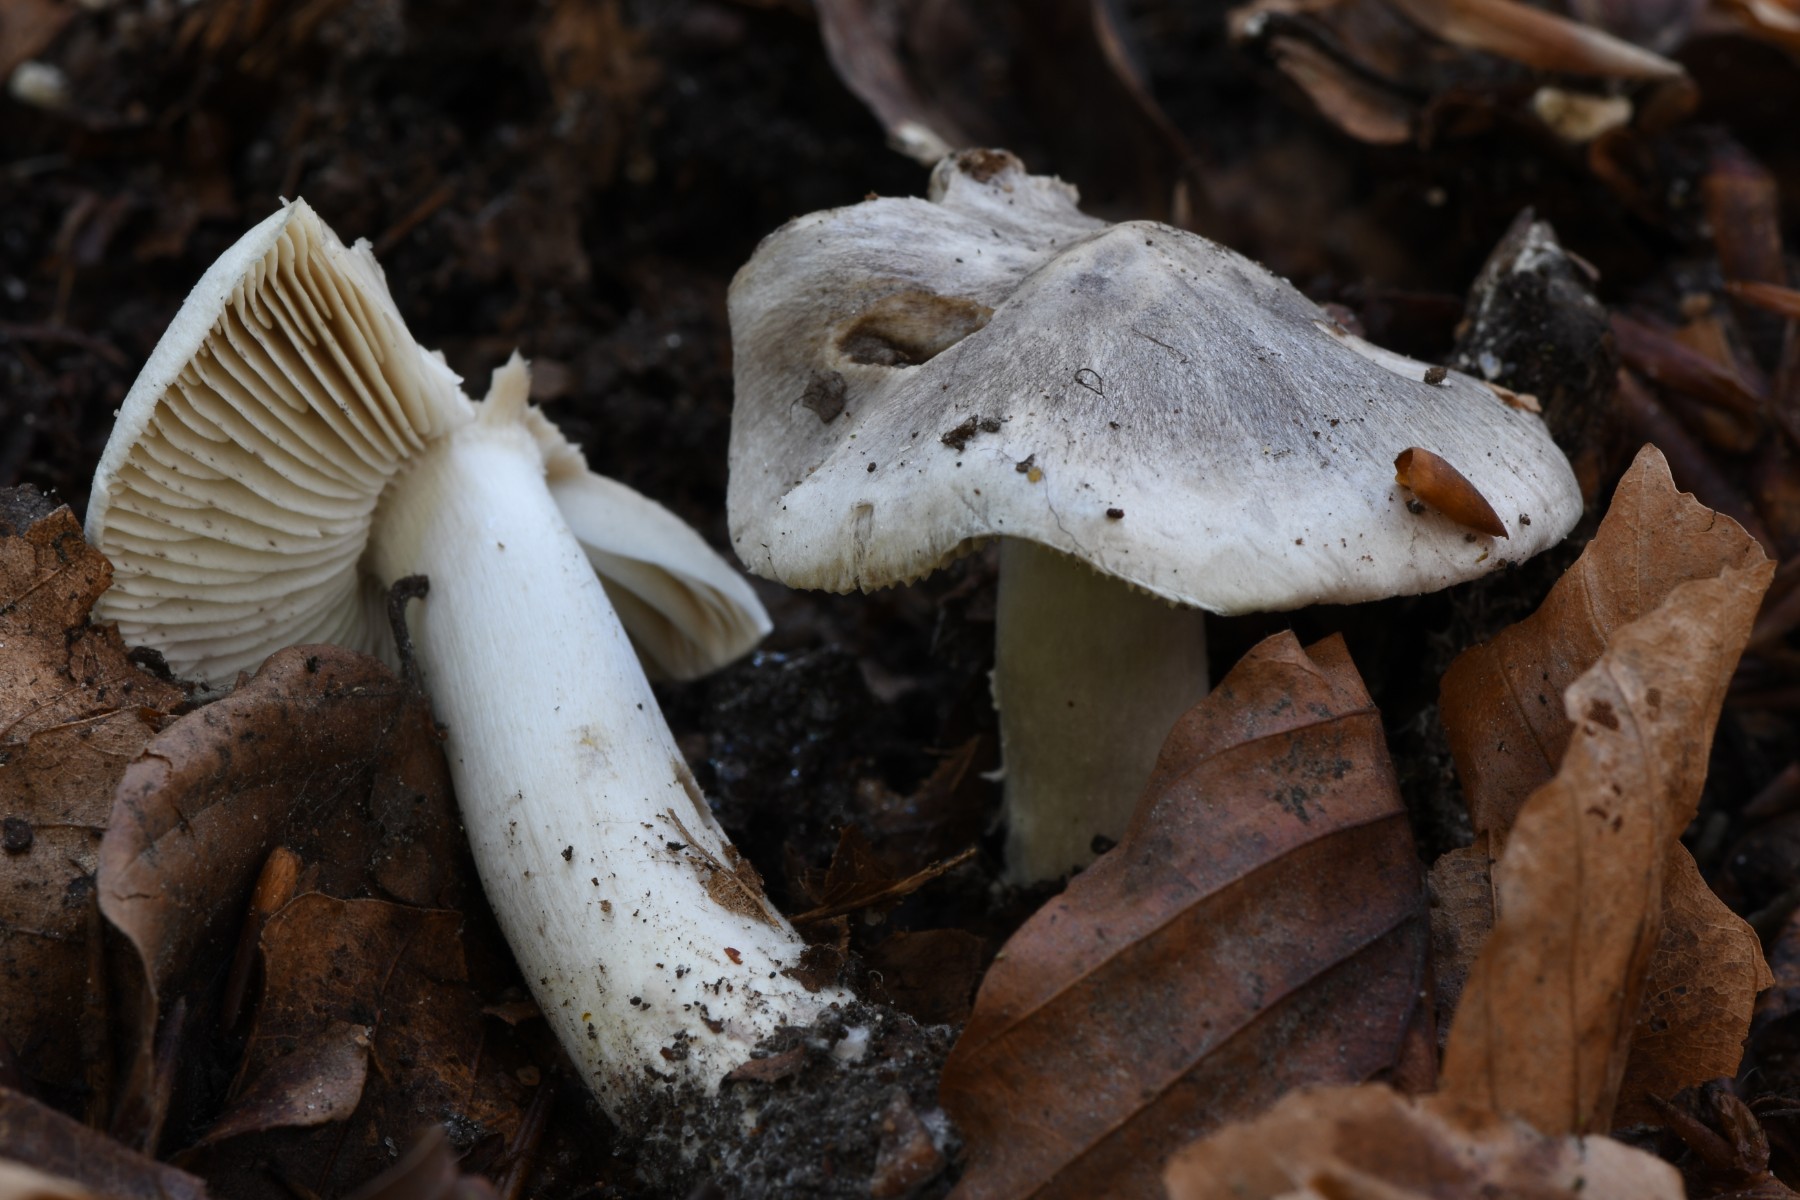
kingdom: Fungi
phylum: Basidiomycota
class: Agaricomycetes
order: Agaricales
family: Tricholomataceae
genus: Tricholoma
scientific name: Tricholoma sciodes
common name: stribet ridderhat
